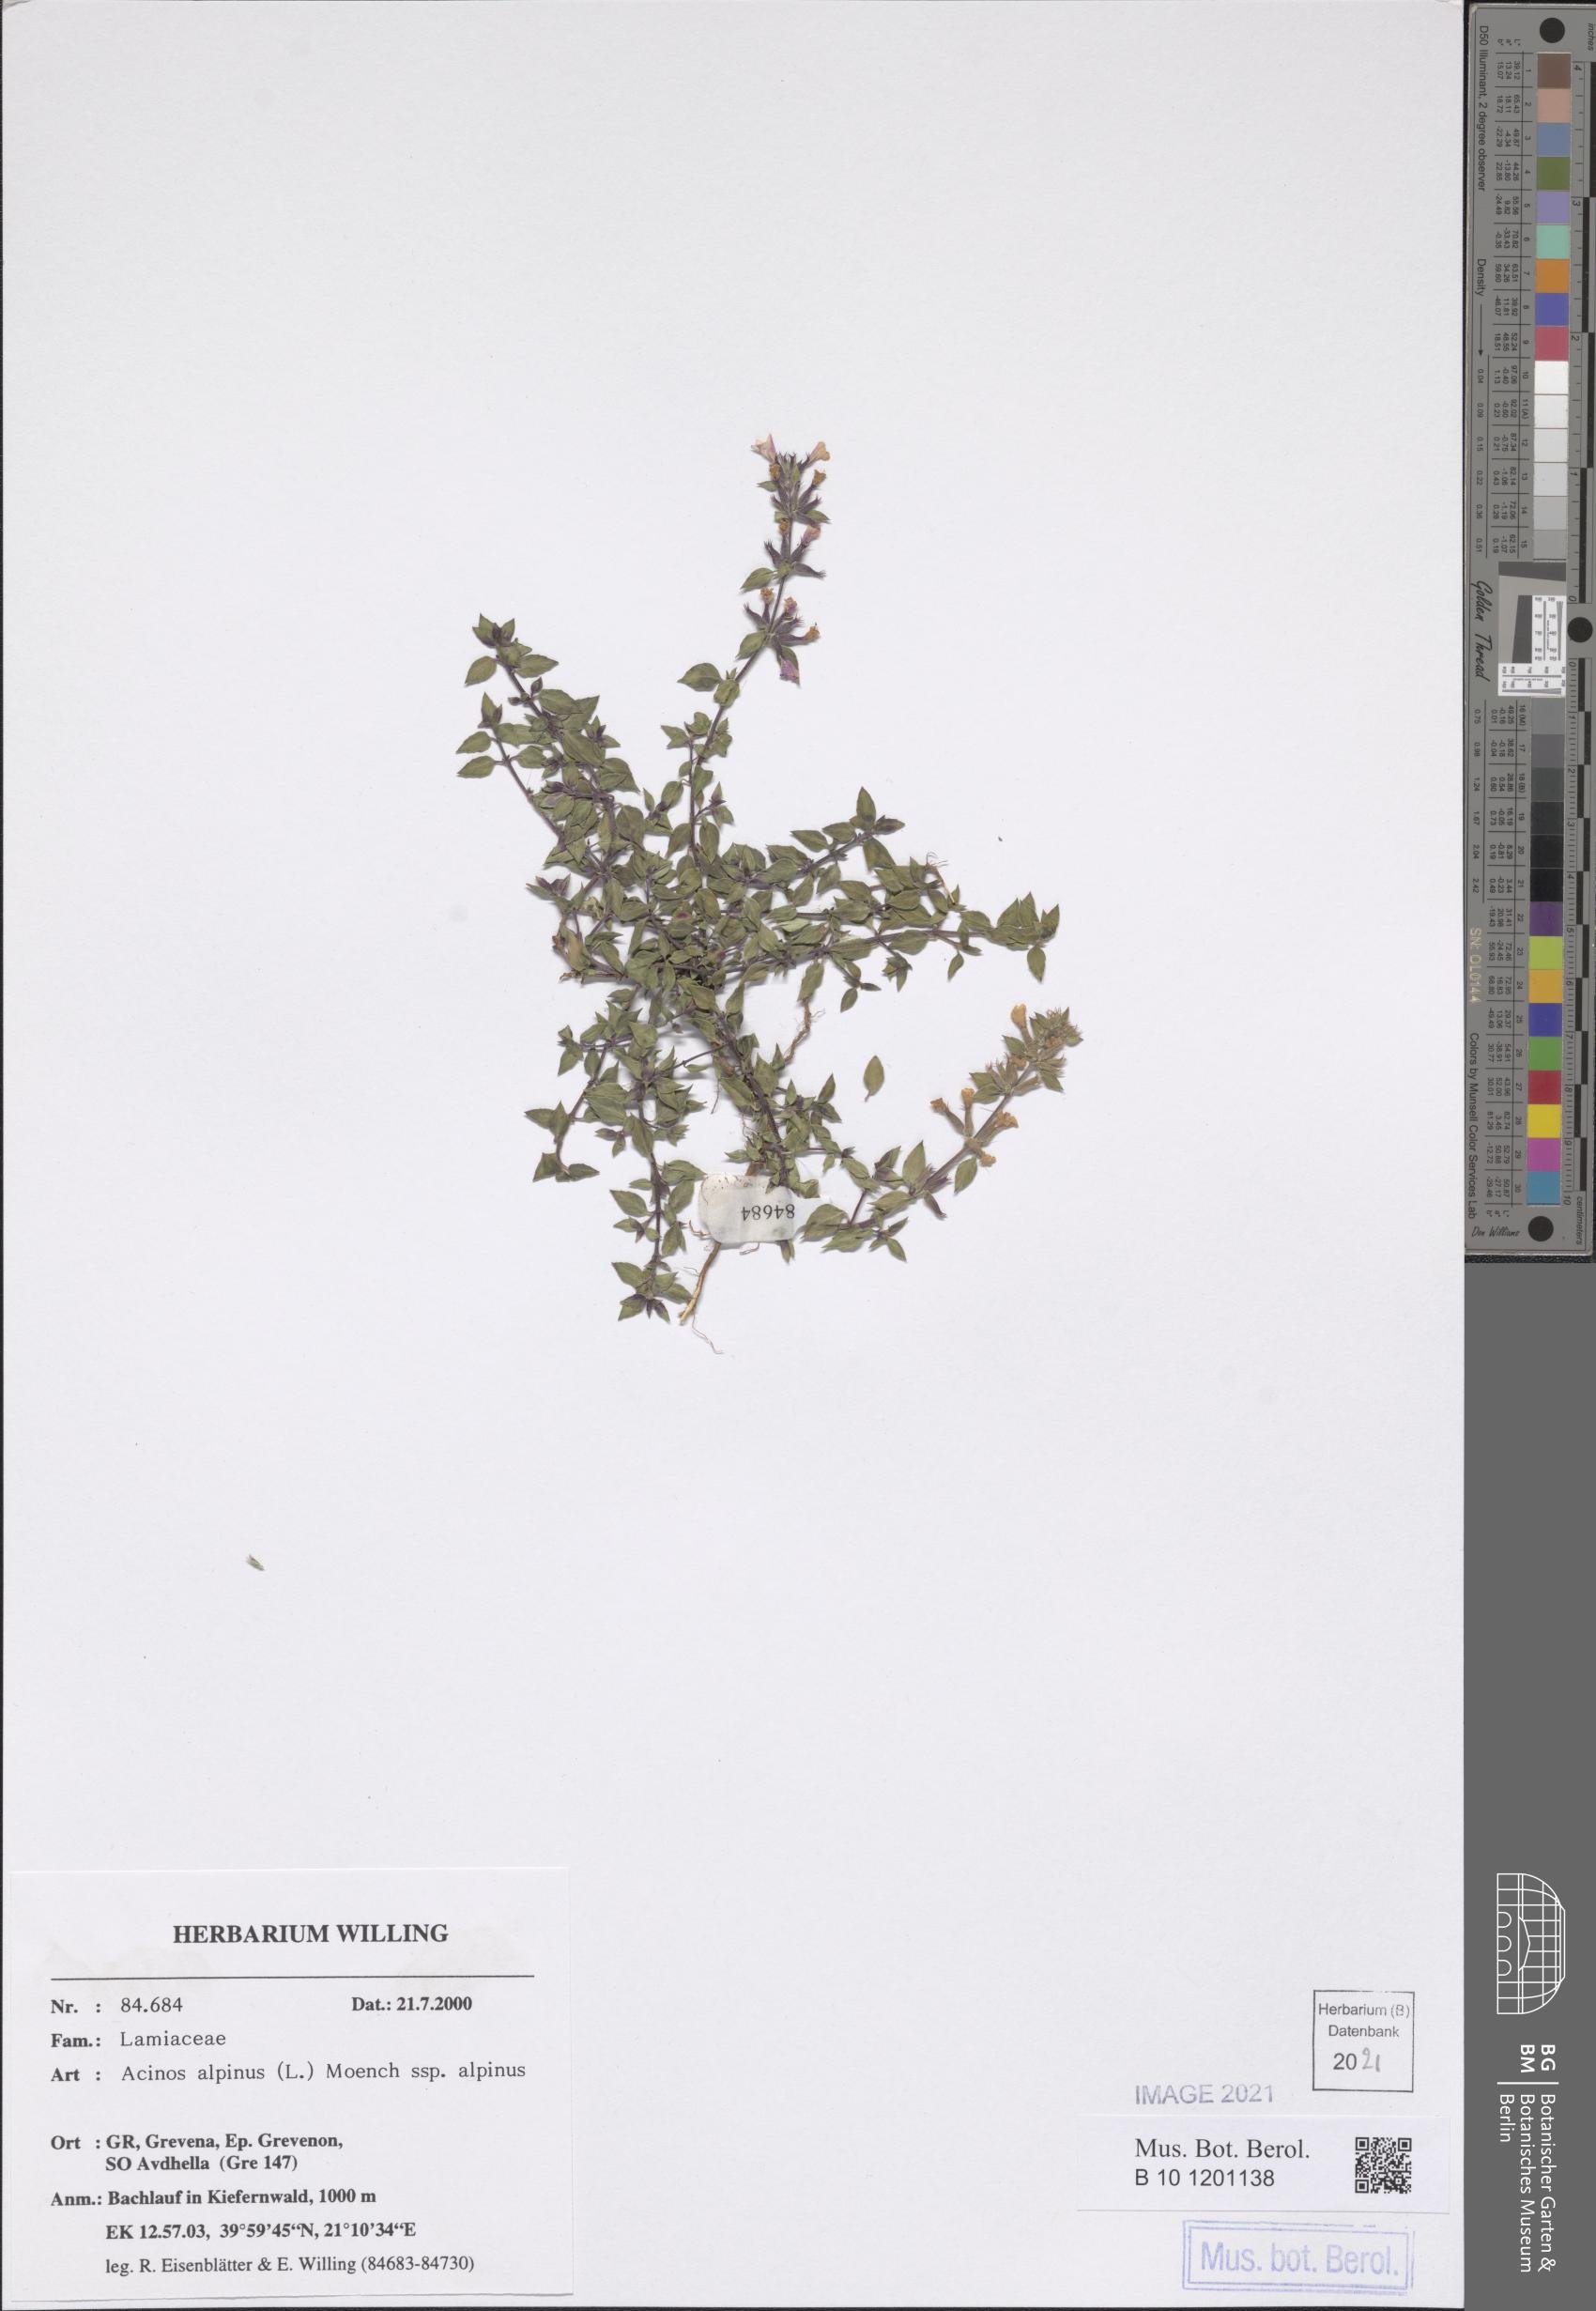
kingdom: Plantae
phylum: Tracheophyta
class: Magnoliopsida
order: Lamiales
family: Lamiaceae
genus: Clinopodium
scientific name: Clinopodium alpinum
